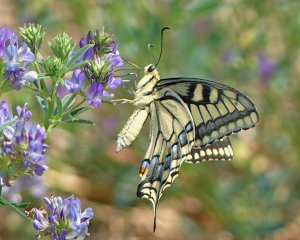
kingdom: Animalia
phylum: Arthropoda
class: Insecta
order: Lepidoptera
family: Papilionidae
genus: Papilio
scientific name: Papilio machaon
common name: Old World Swallowtail
